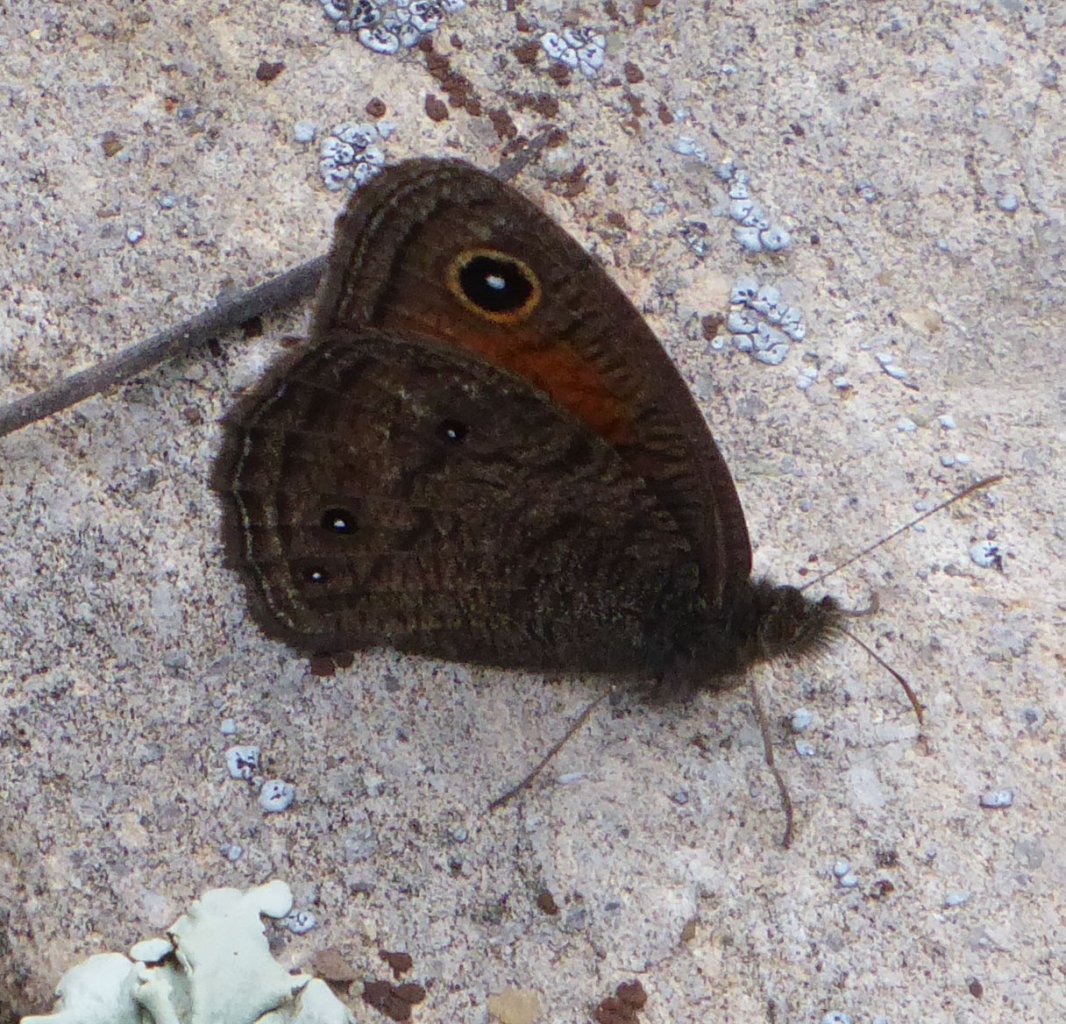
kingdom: Animalia
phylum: Arthropoda
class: Insecta
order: Lepidoptera
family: Nymphalidae
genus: Cercyonis
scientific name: Cercyonis meadi
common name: Mead's Wood-Nymph
